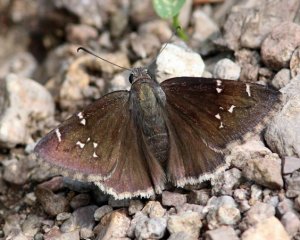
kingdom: Animalia
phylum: Arthropoda
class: Insecta
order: Lepidoptera
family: Hesperiidae
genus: Autochton
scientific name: Autochton
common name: Northern Cloudywing
